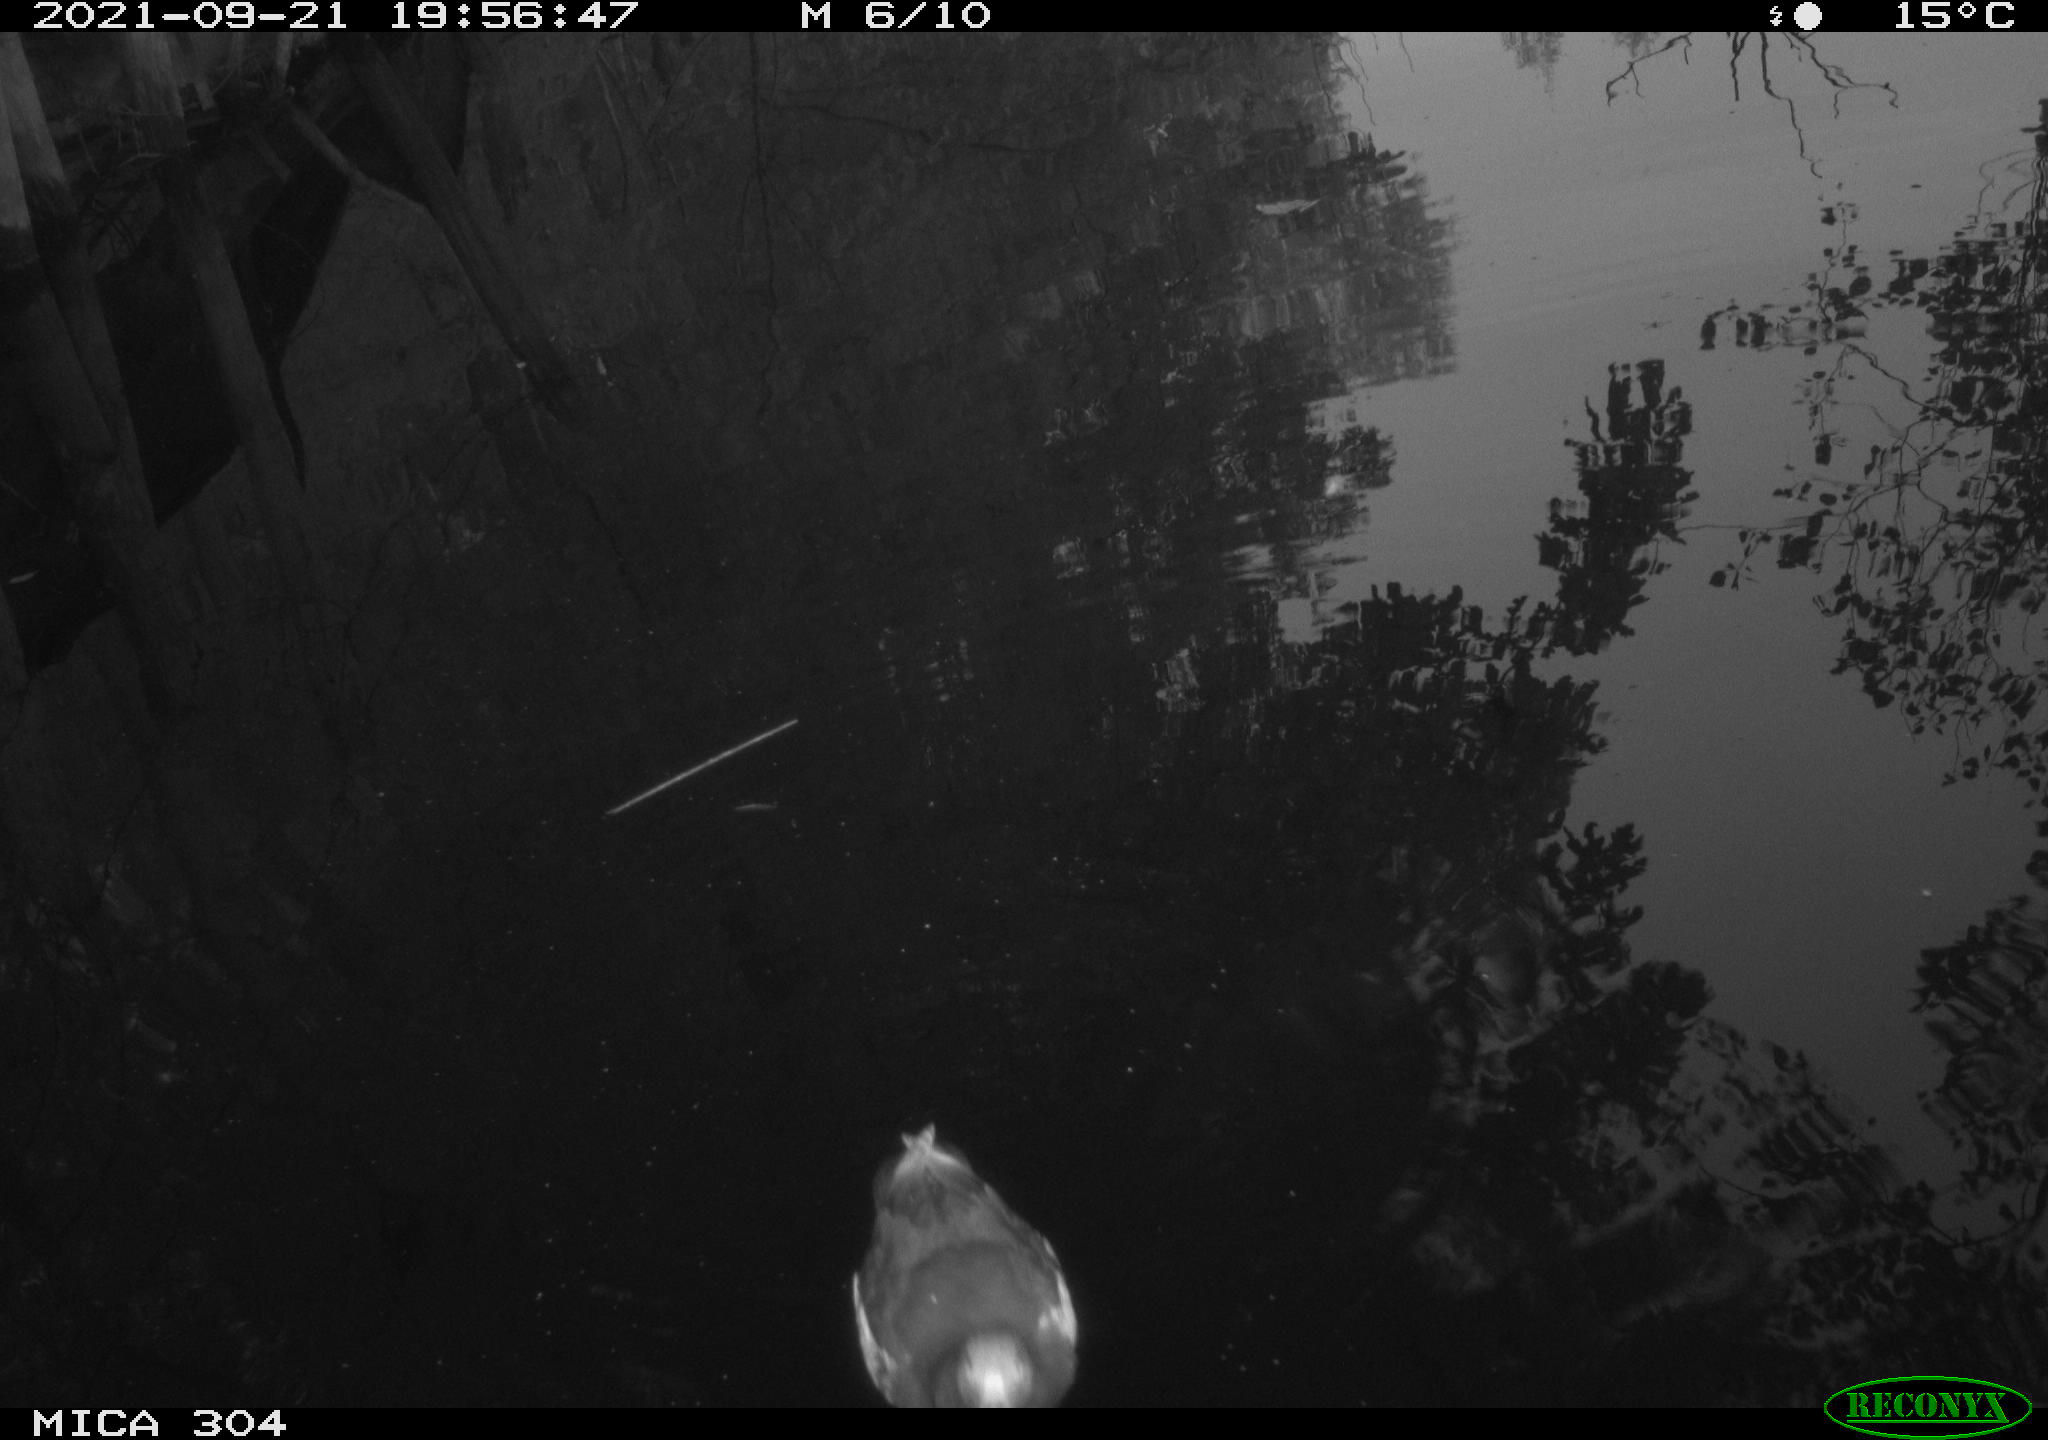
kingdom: Animalia
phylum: Chordata
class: Aves
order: Gruiformes
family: Rallidae
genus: Gallinula
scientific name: Gallinula chloropus
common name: Common moorhen
